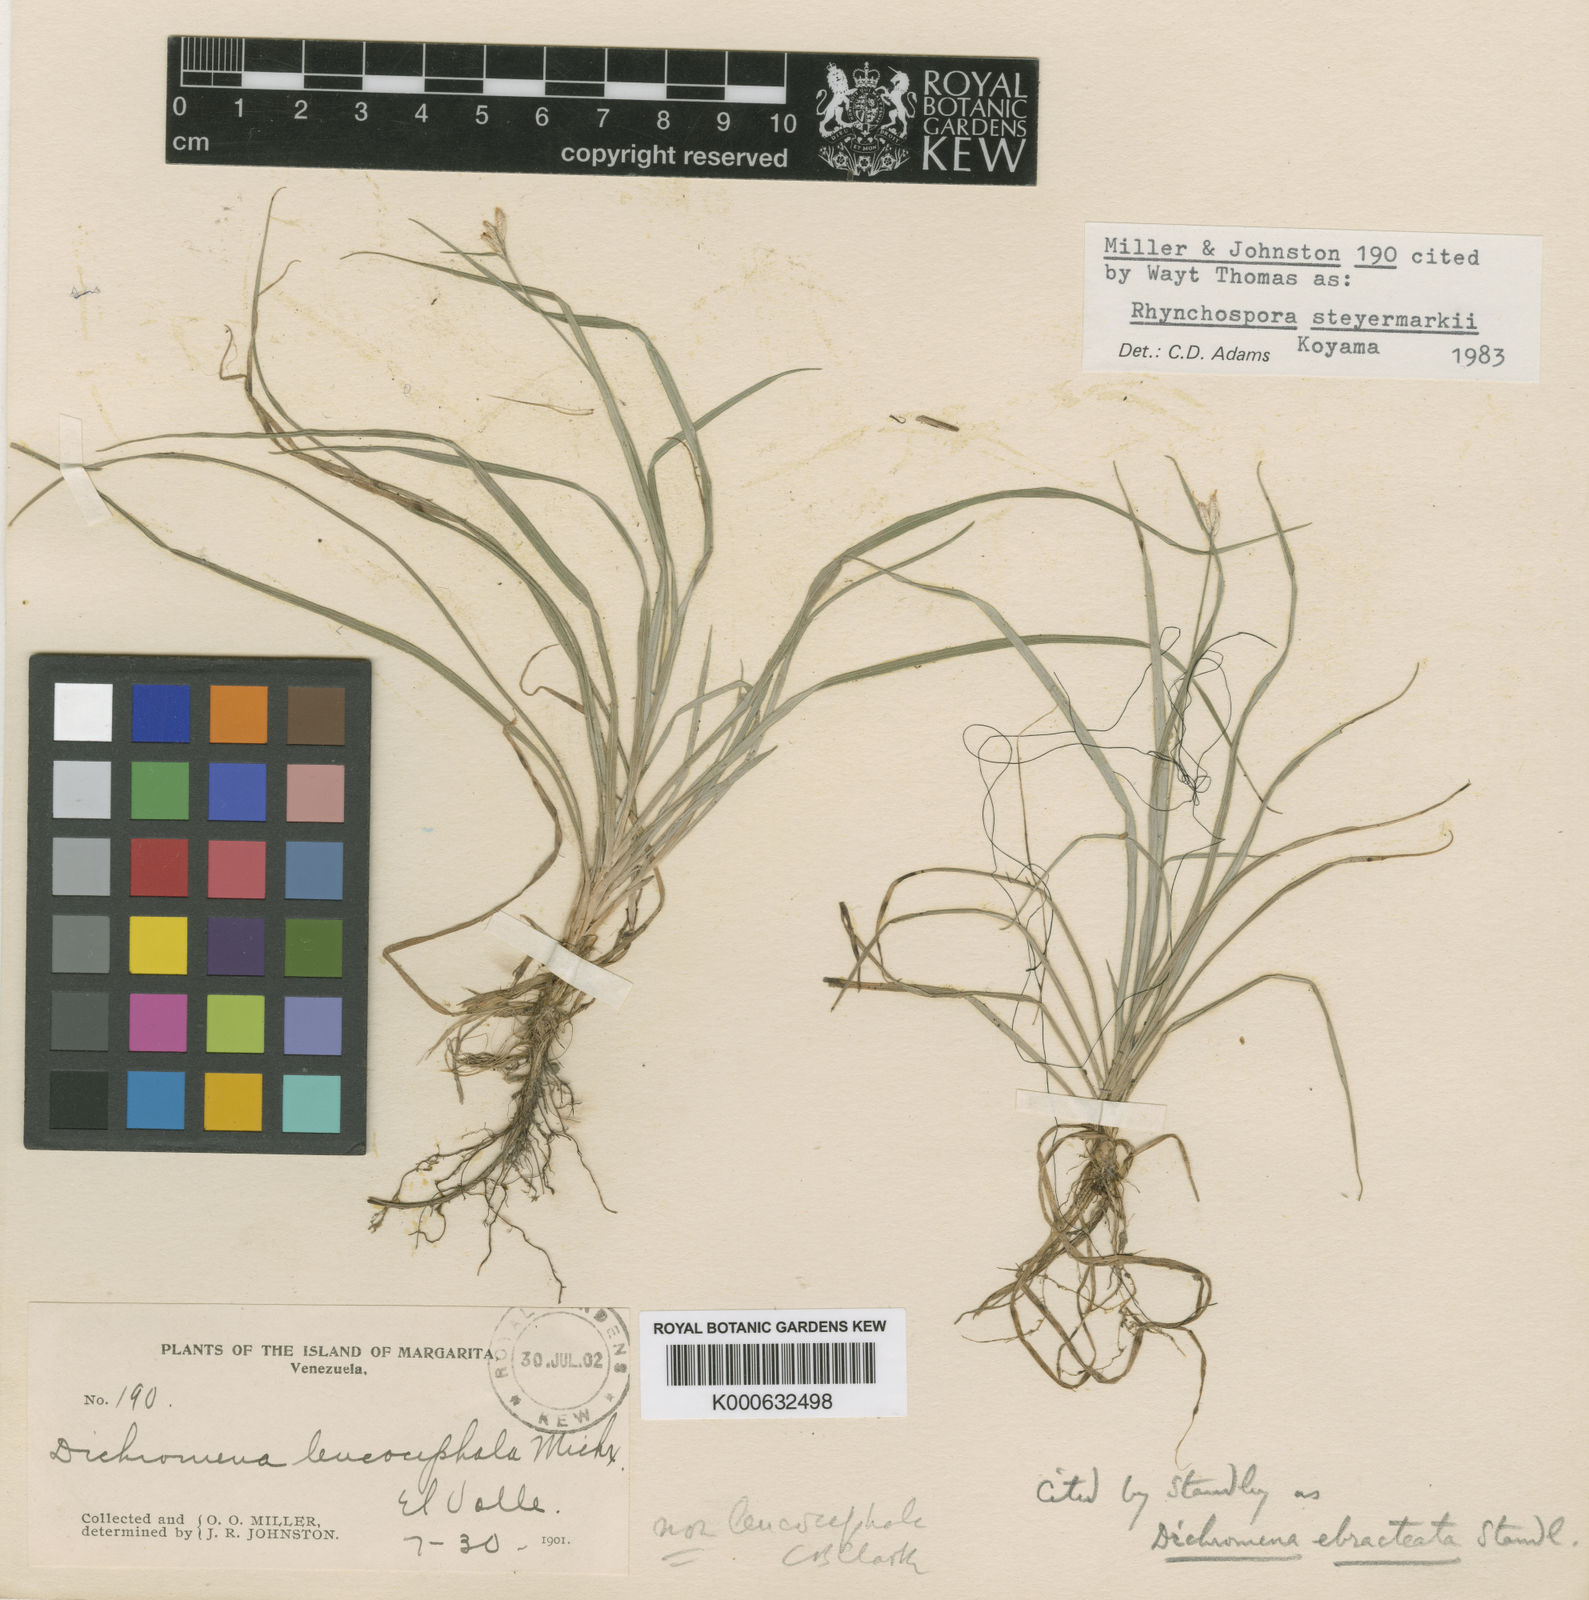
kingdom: Plantae
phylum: Tracheophyta
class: Liliopsida
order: Poales
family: Cyperaceae
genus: Rhynchospora
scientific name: Rhynchospora steyermarkii
